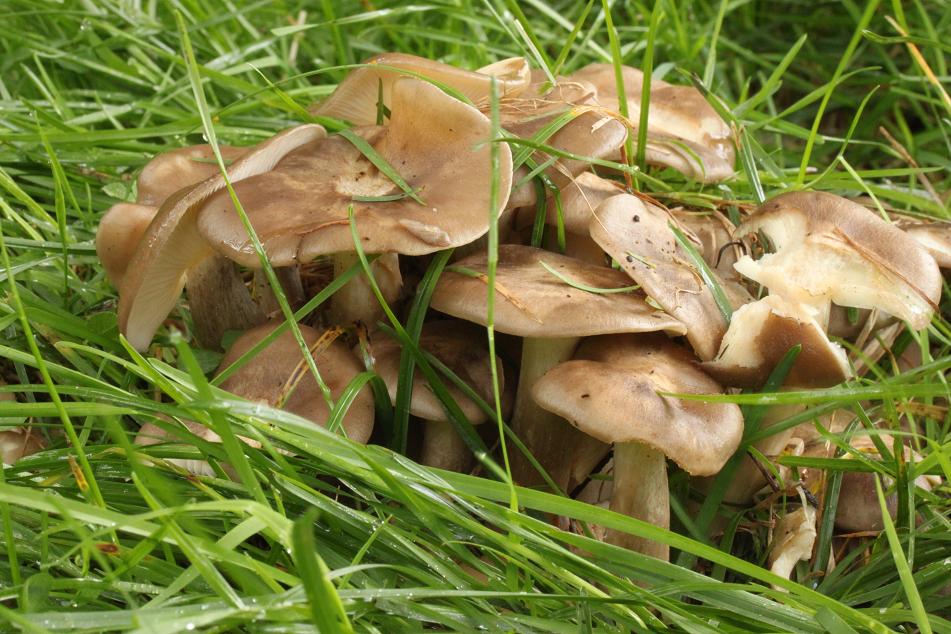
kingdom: Fungi
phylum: Basidiomycota
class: Agaricomycetes
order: Agaricales
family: Lyophyllaceae
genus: Lyophyllum
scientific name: Lyophyllum decastes
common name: røggrå gråblad
